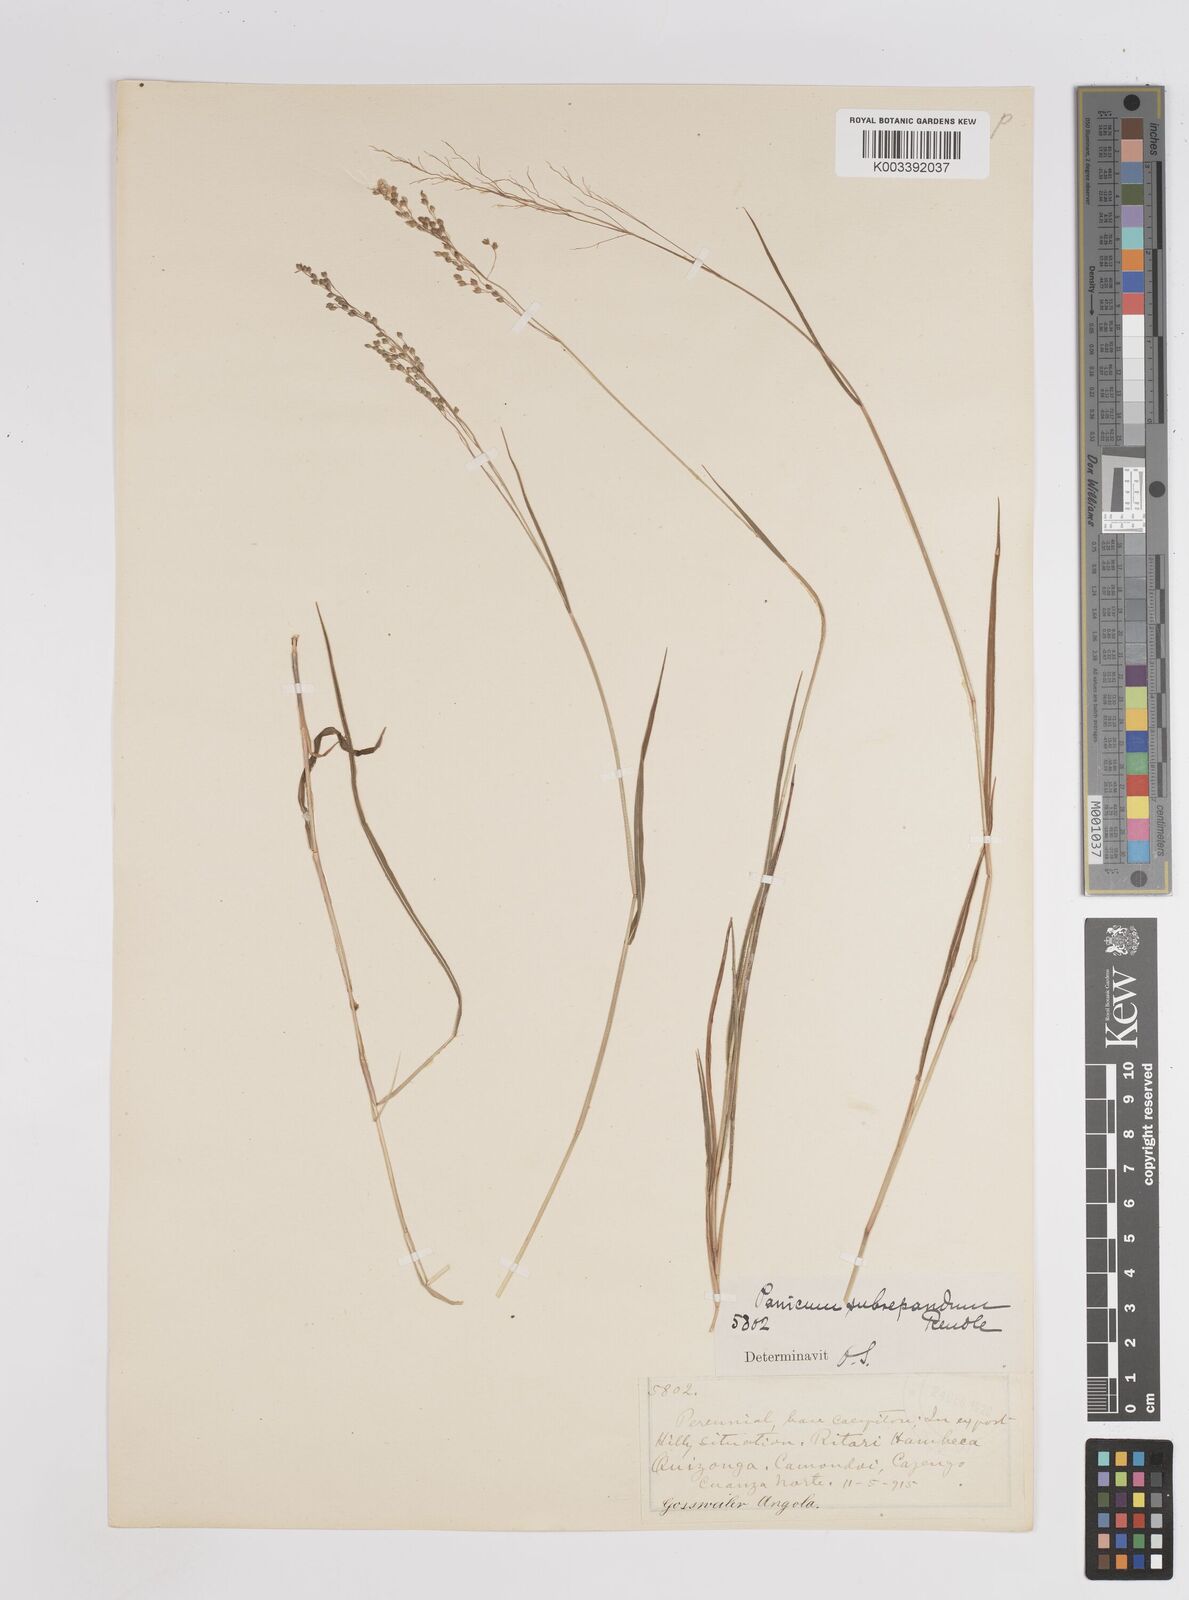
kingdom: Plantae
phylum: Tracheophyta
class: Liliopsida
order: Poales
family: Poaceae
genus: Trichanthecium
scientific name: Trichanthecium nervatum
